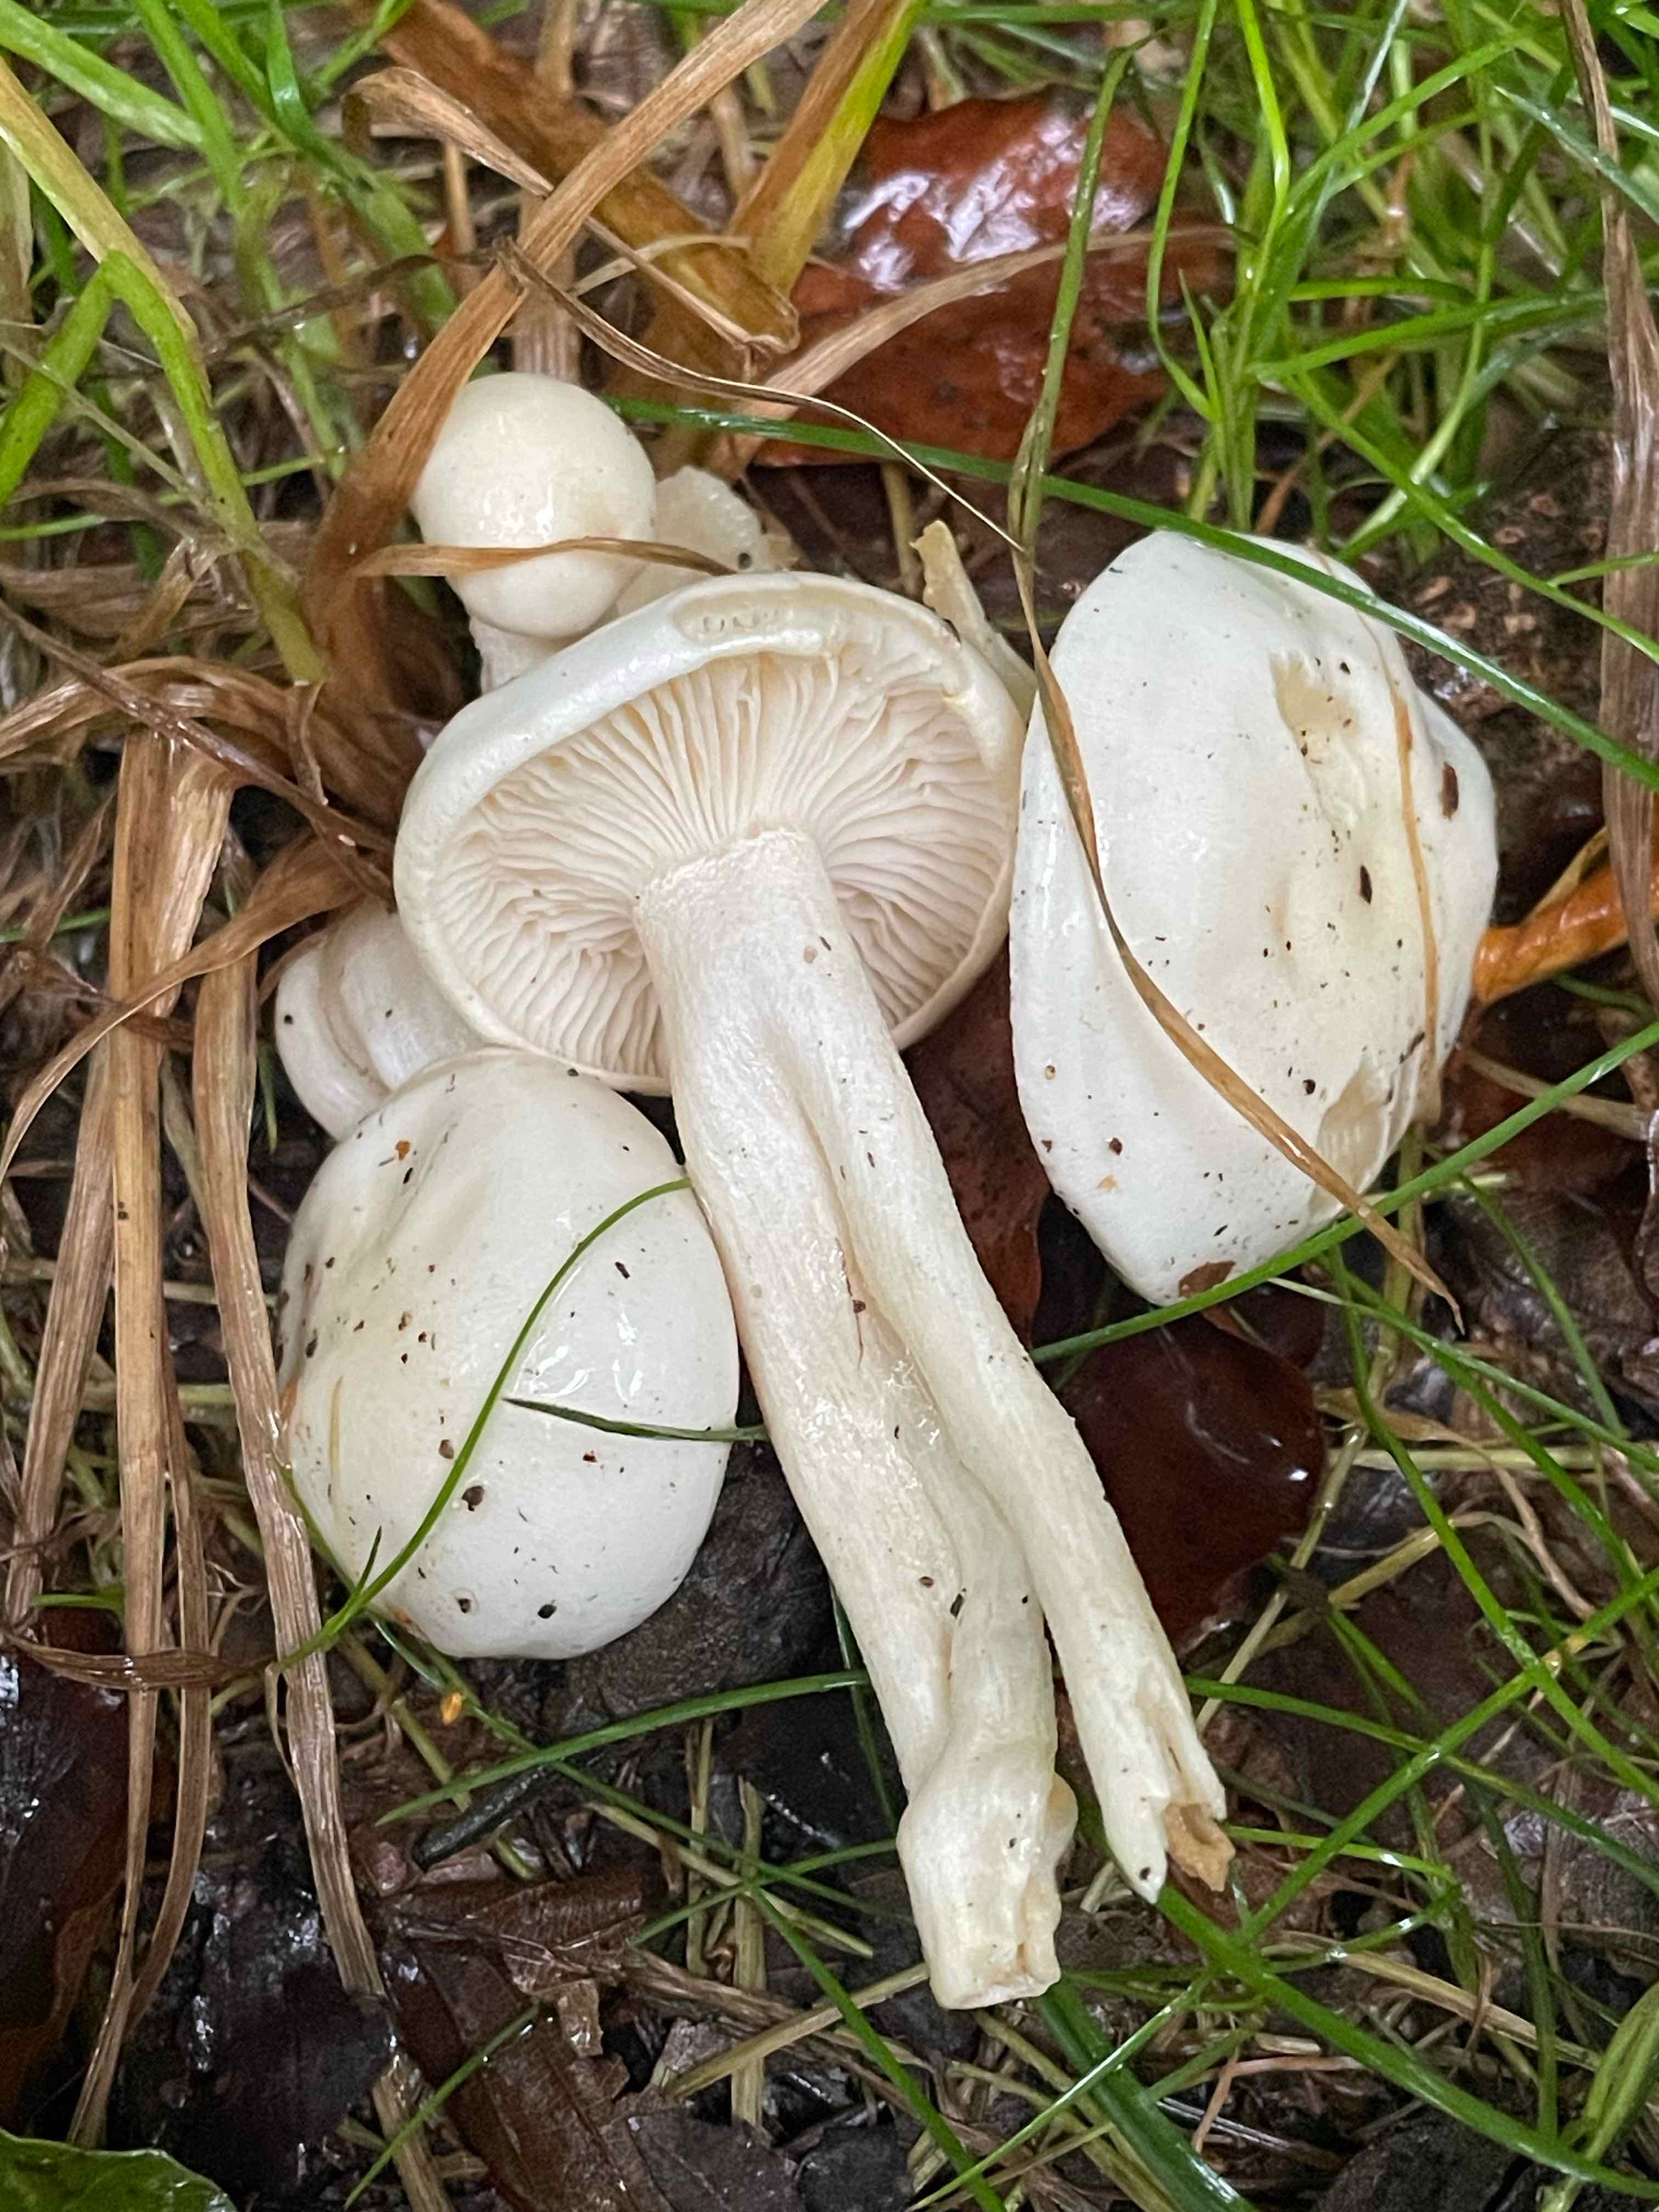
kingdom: Fungi
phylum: Basidiomycota
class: Agaricomycetes
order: Agaricales
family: Hygrophoraceae
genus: Hygrophorus
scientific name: Hygrophorus eburneus
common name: elfenbens-sneglehat
